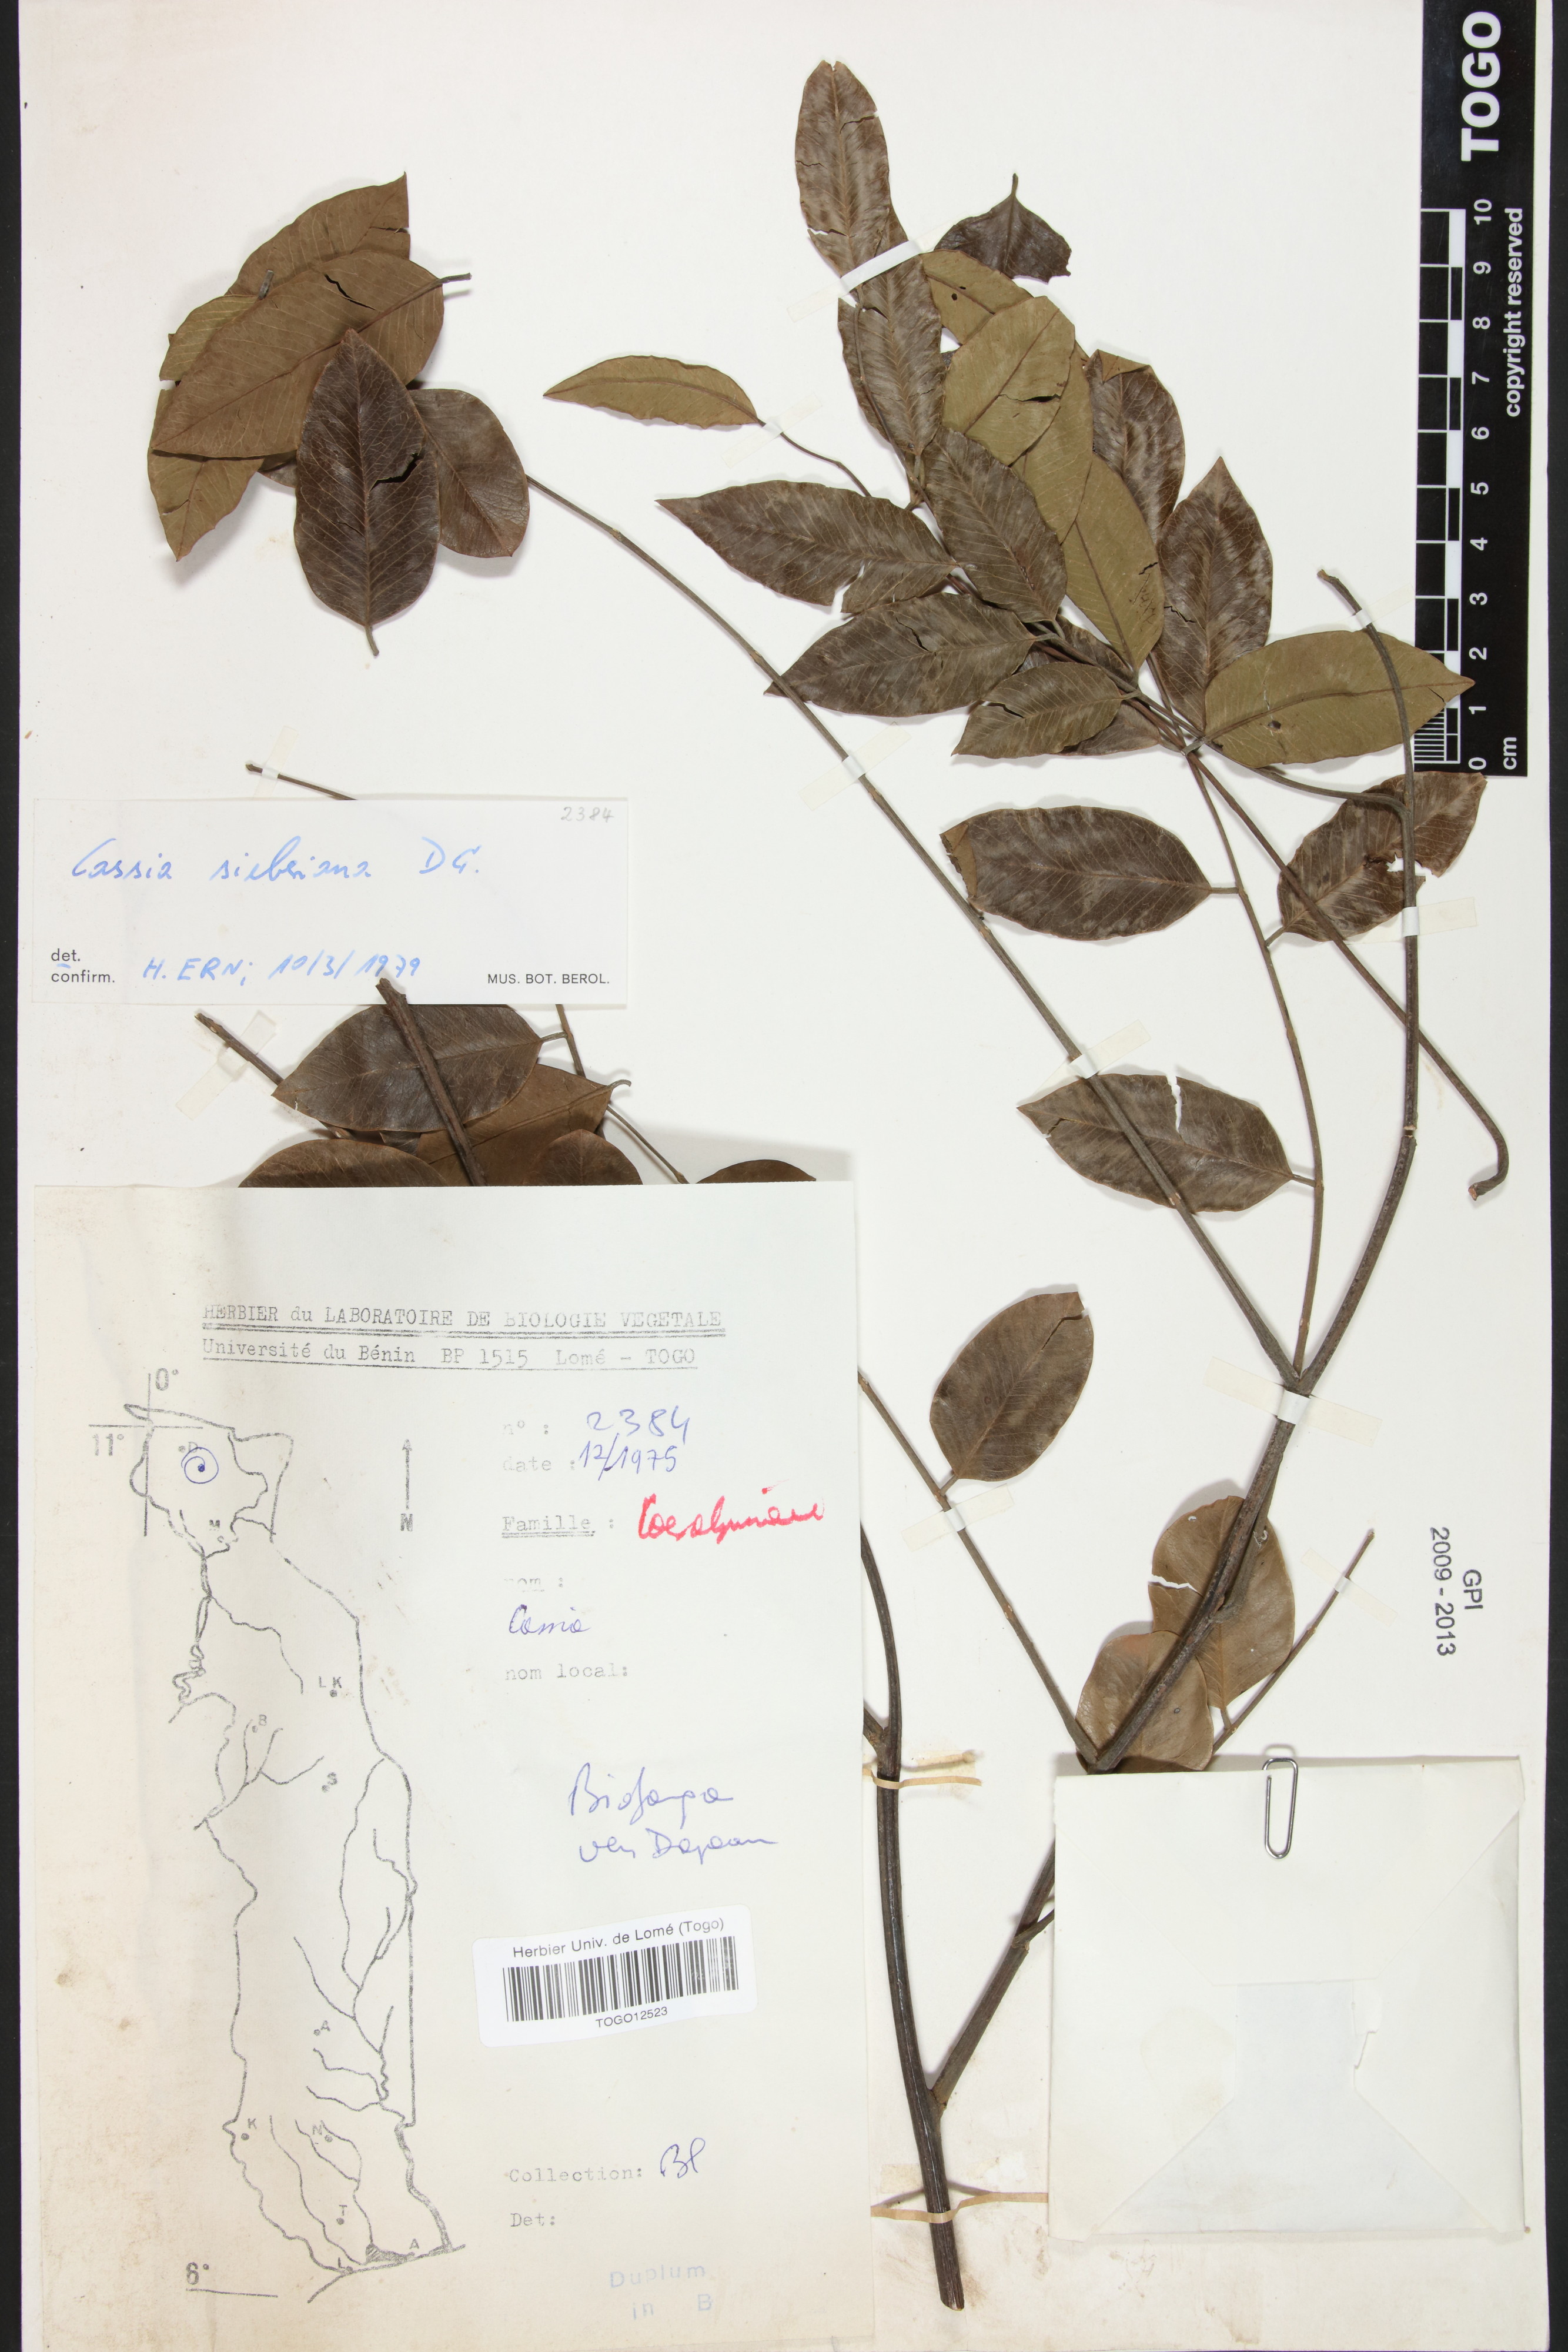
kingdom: Plantae
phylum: Tracheophyta
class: Magnoliopsida
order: Fabales
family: Fabaceae
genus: Cassia
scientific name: Cassia sieberiana
